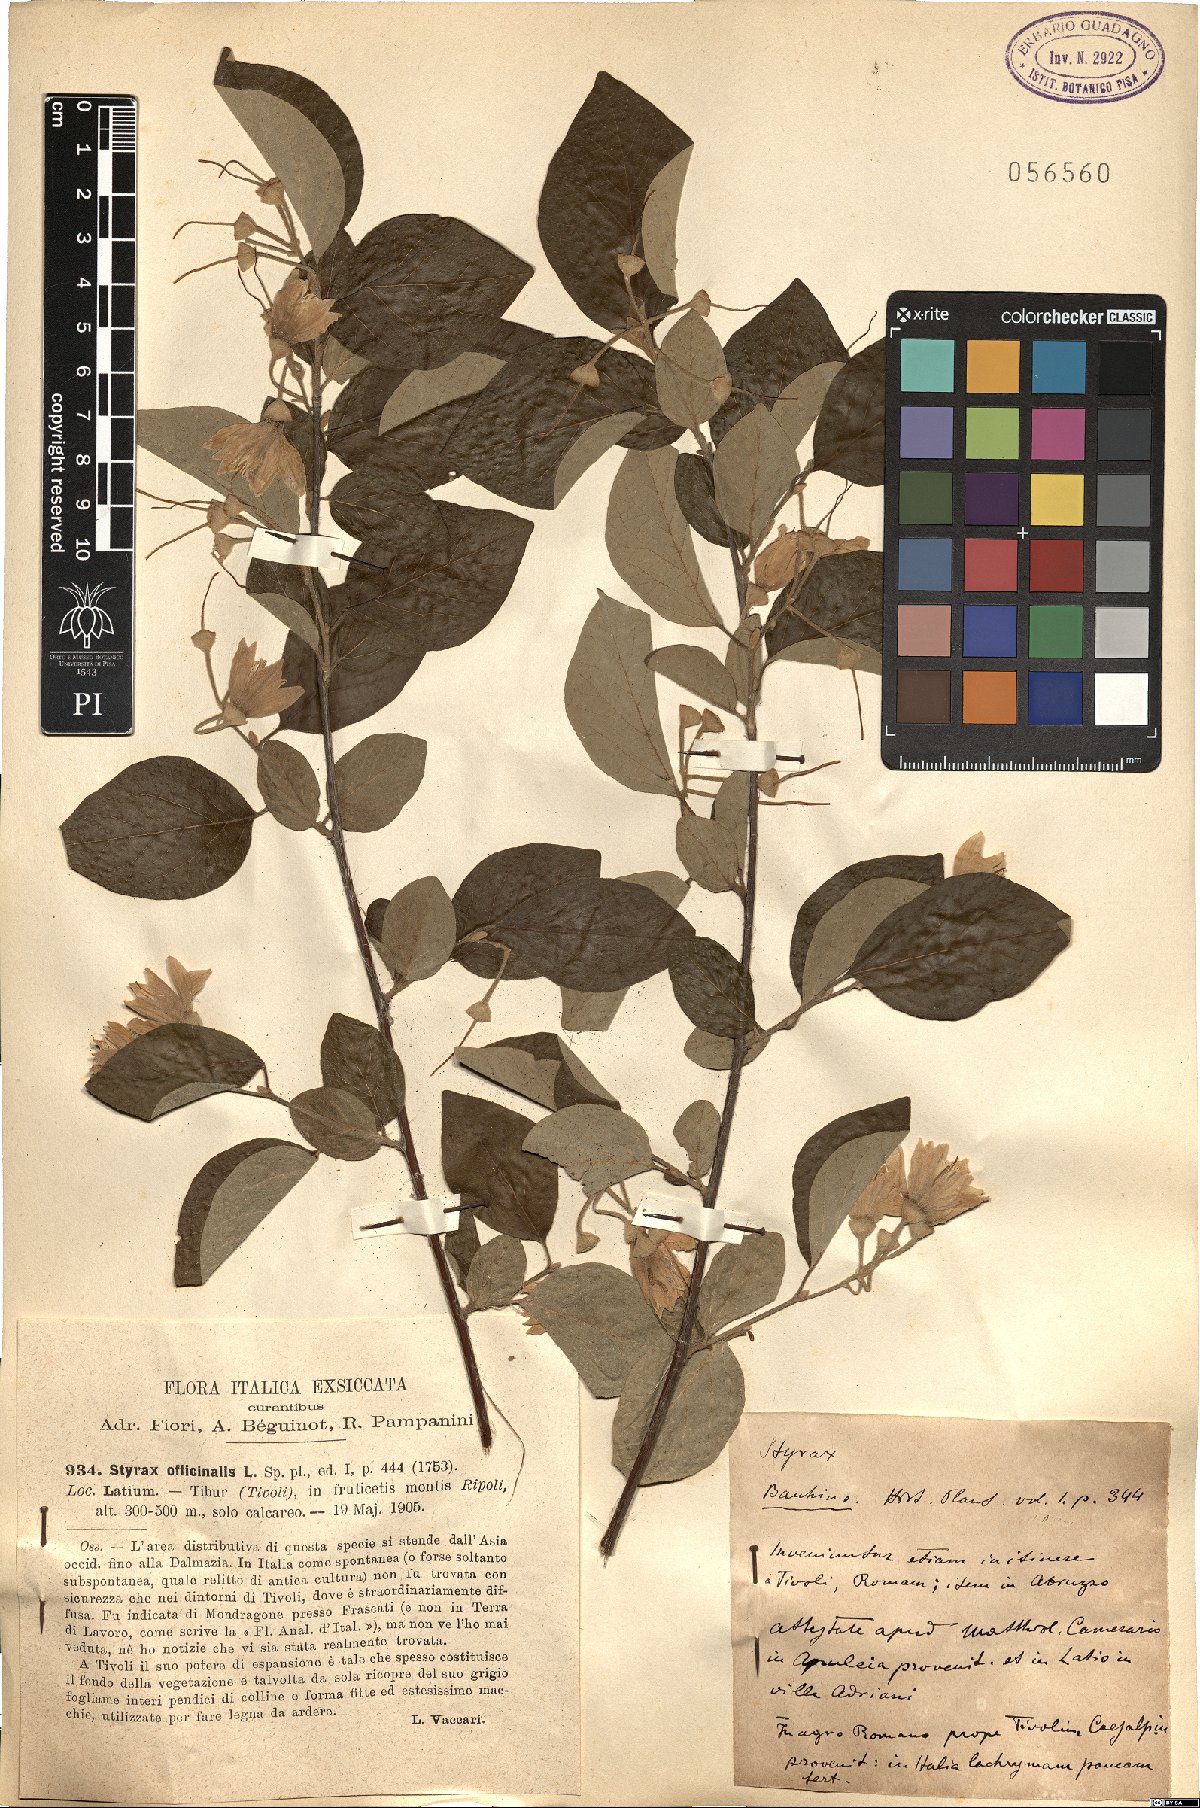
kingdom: Plantae
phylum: Tracheophyta
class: Magnoliopsida
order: Ericales
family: Styracaceae
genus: Styrax
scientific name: Styrax officinalis
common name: Storax
